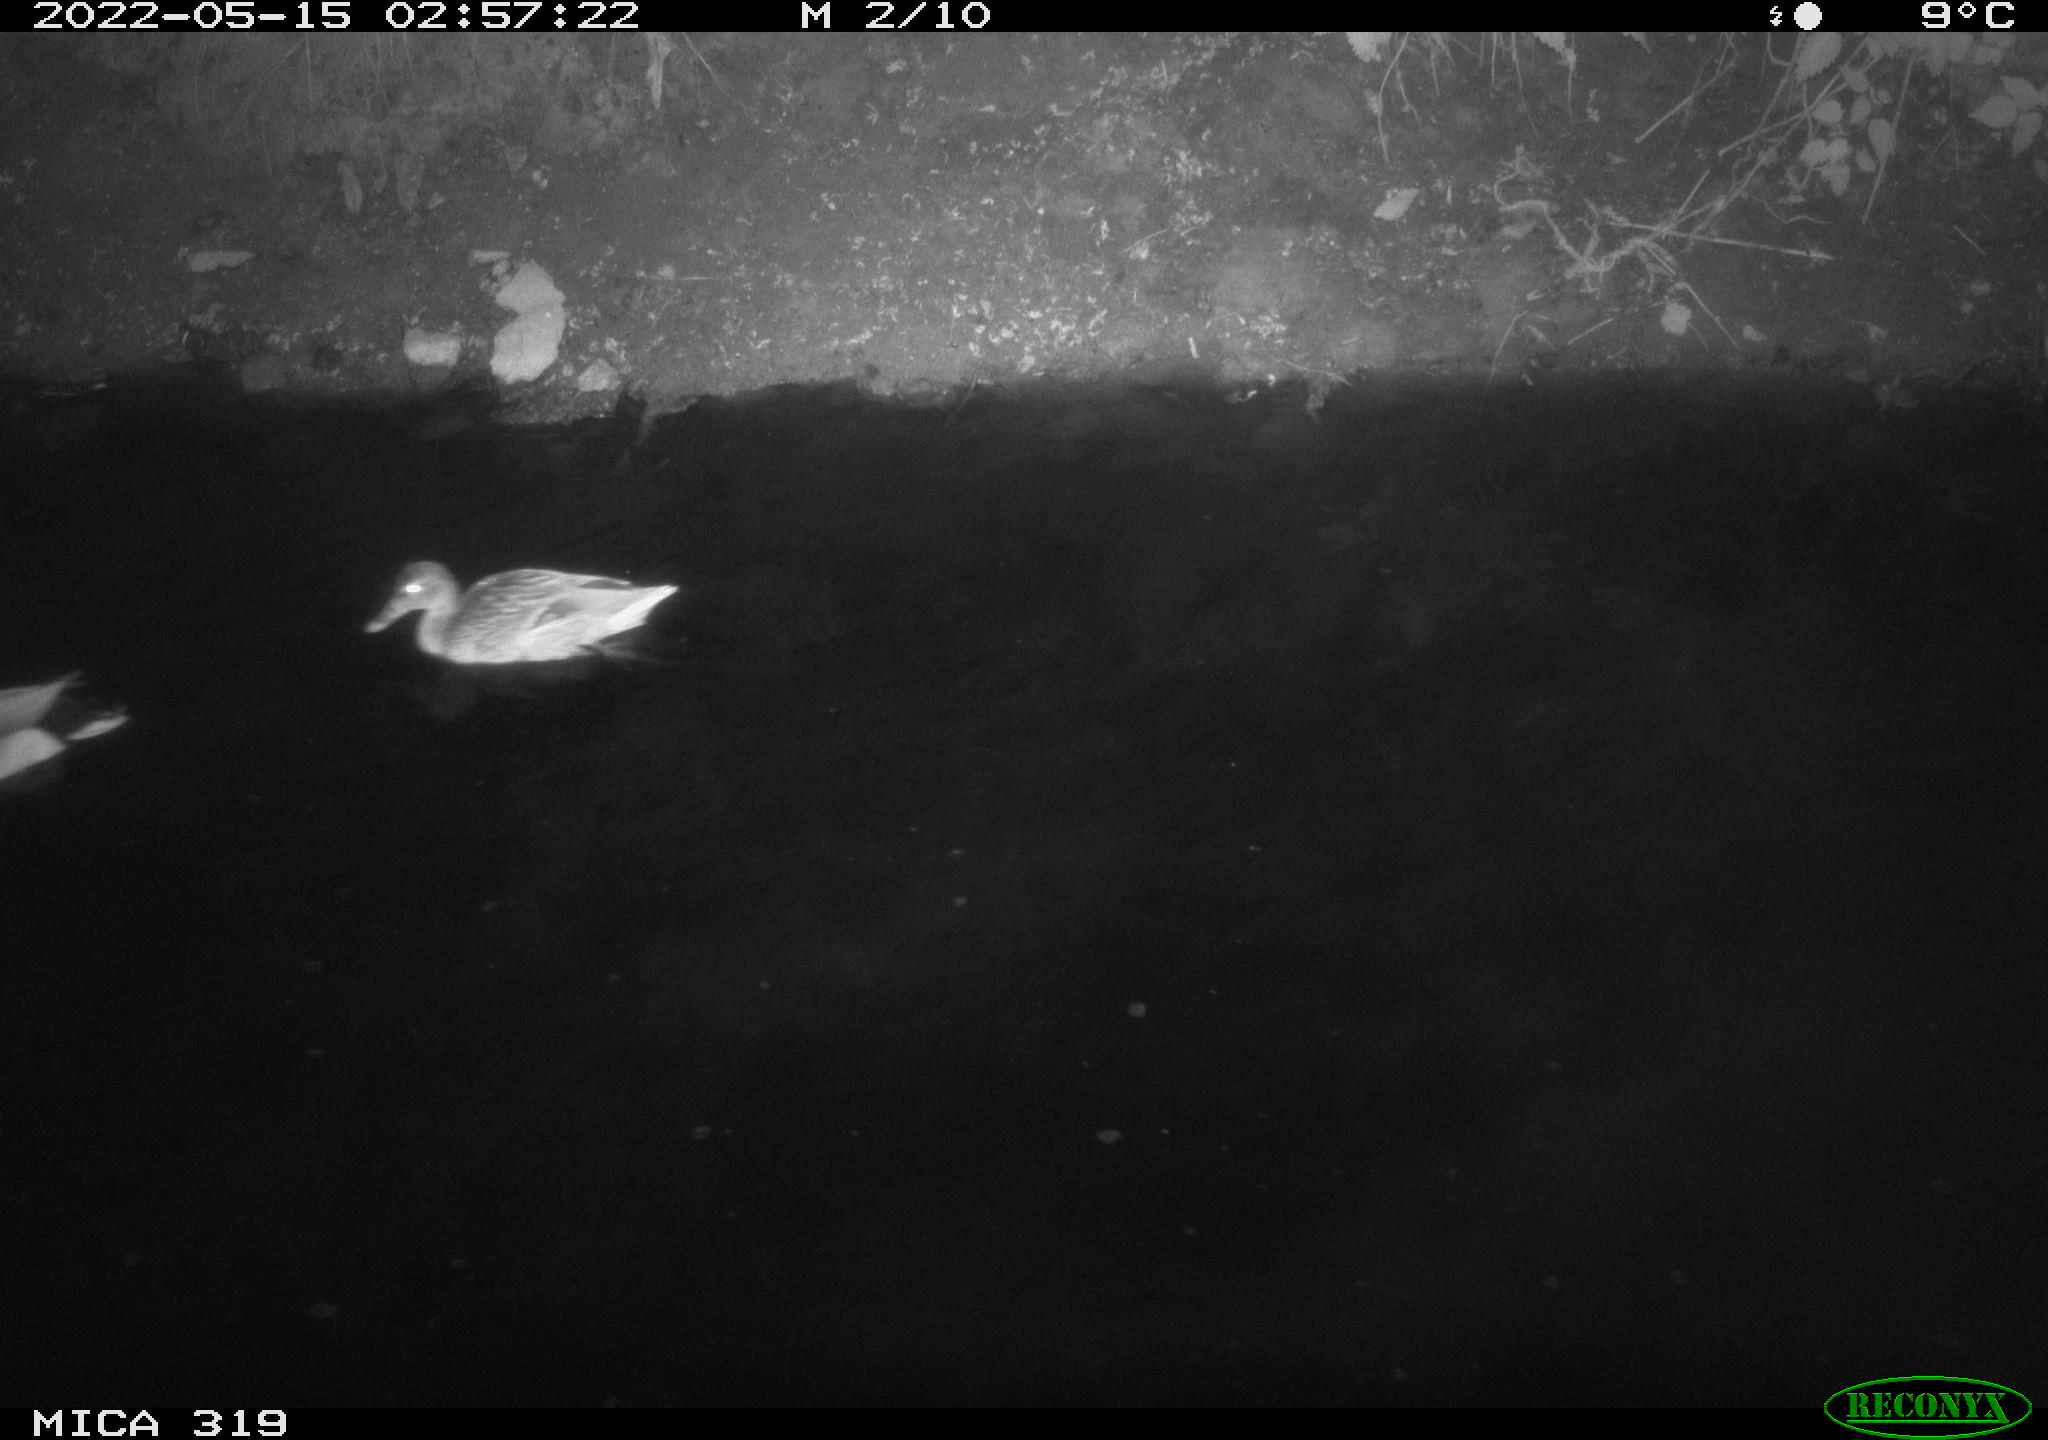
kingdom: Animalia
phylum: Chordata
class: Aves
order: Anseriformes
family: Anatidae
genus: Anas
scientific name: Anas
